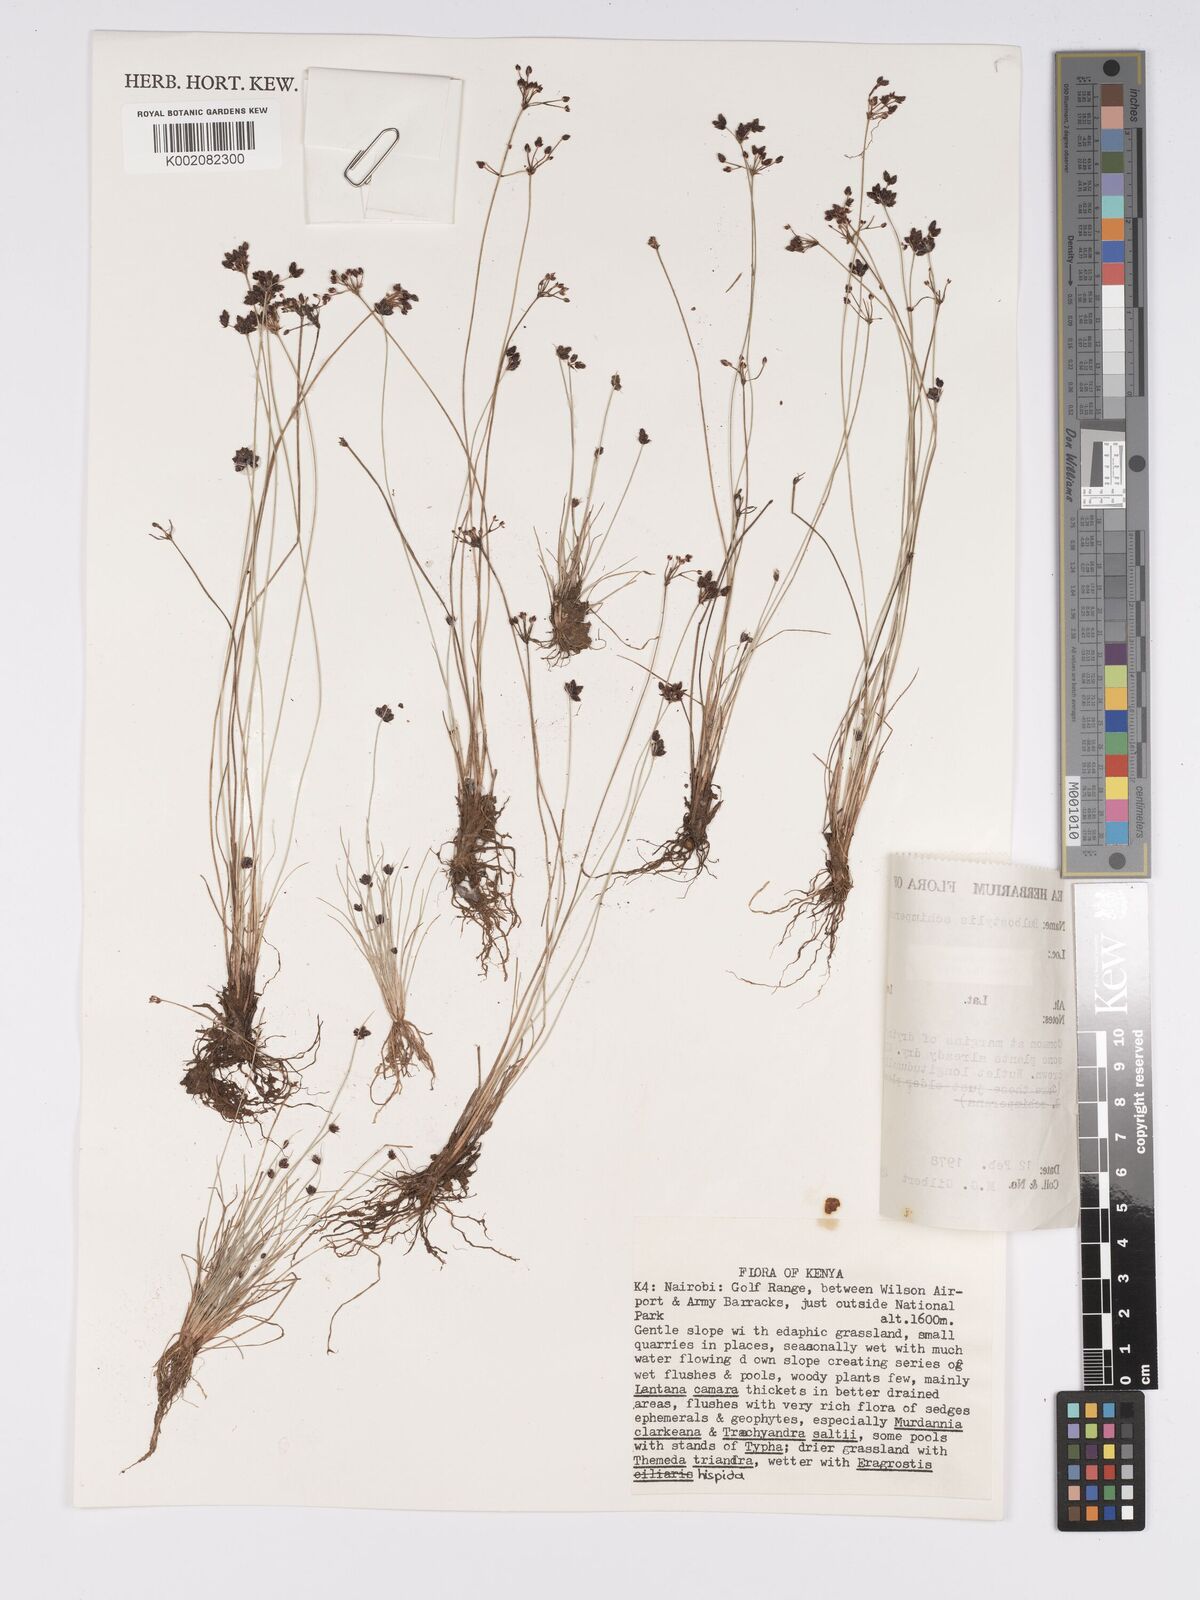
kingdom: Plantae
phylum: Tracheophyta
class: Liliopsida
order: Poales
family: Cyperaceae
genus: Bulbostylis
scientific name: Bulbostylis schimperiana
